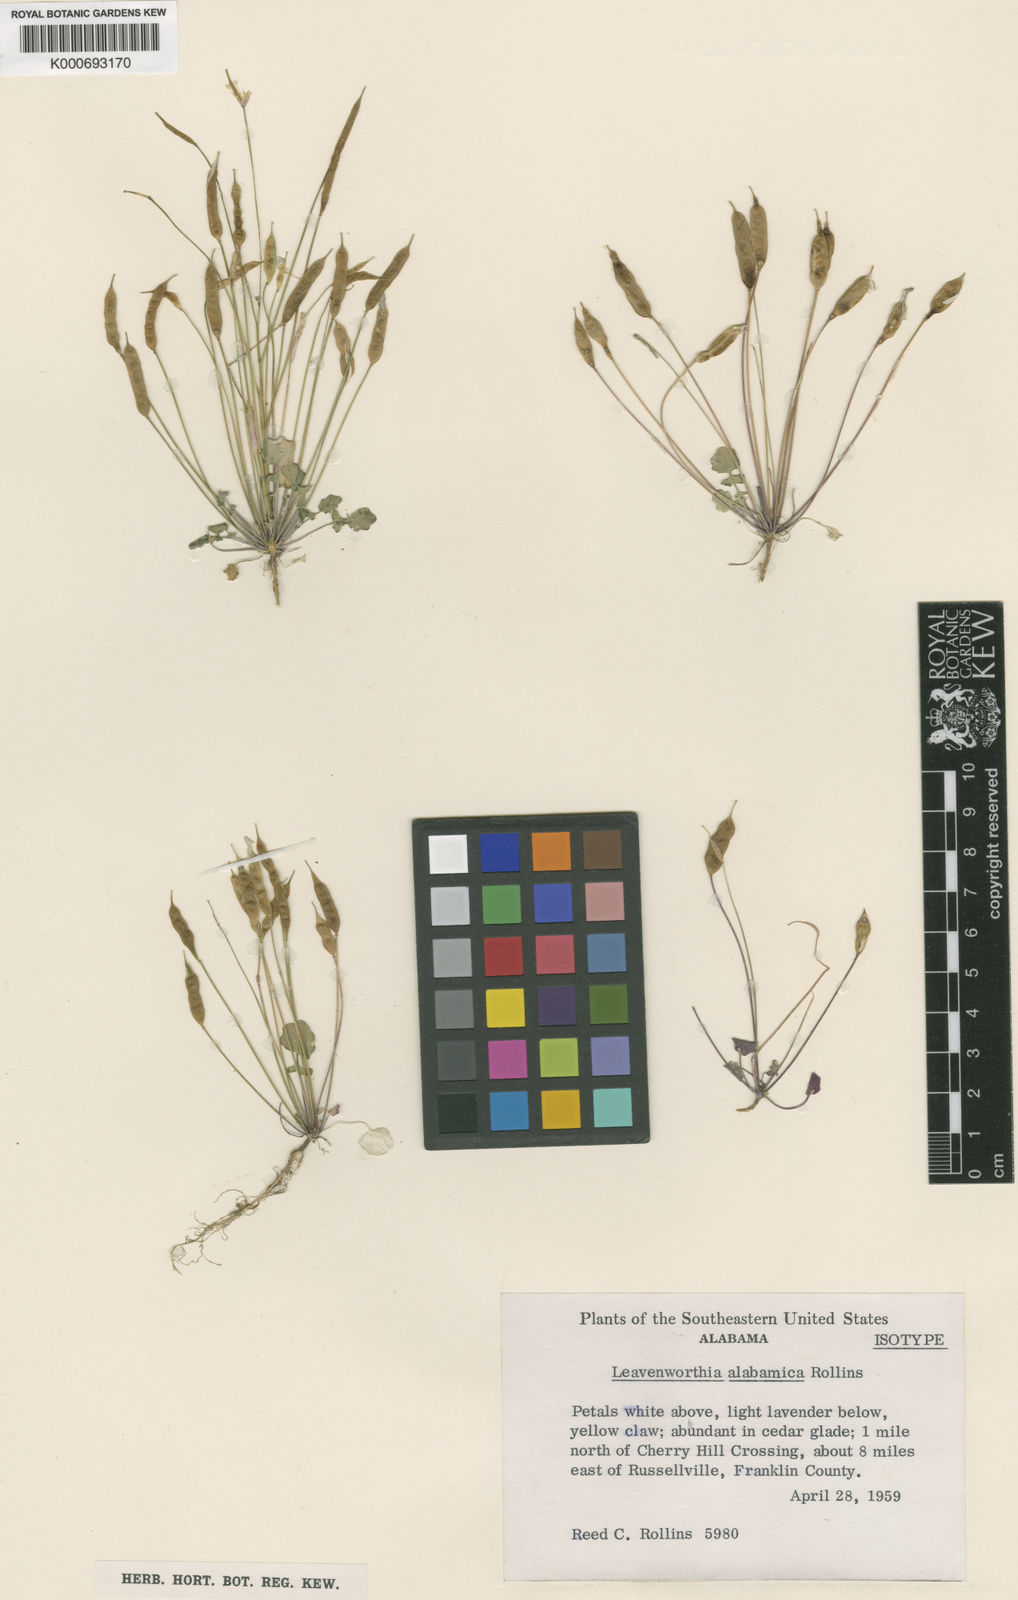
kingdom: Plantae
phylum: Tracheophyta
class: Magnoliopsida
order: Brassicales
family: Brassicaceae
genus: Leavenworthia
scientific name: Leavenworthia alabamica
